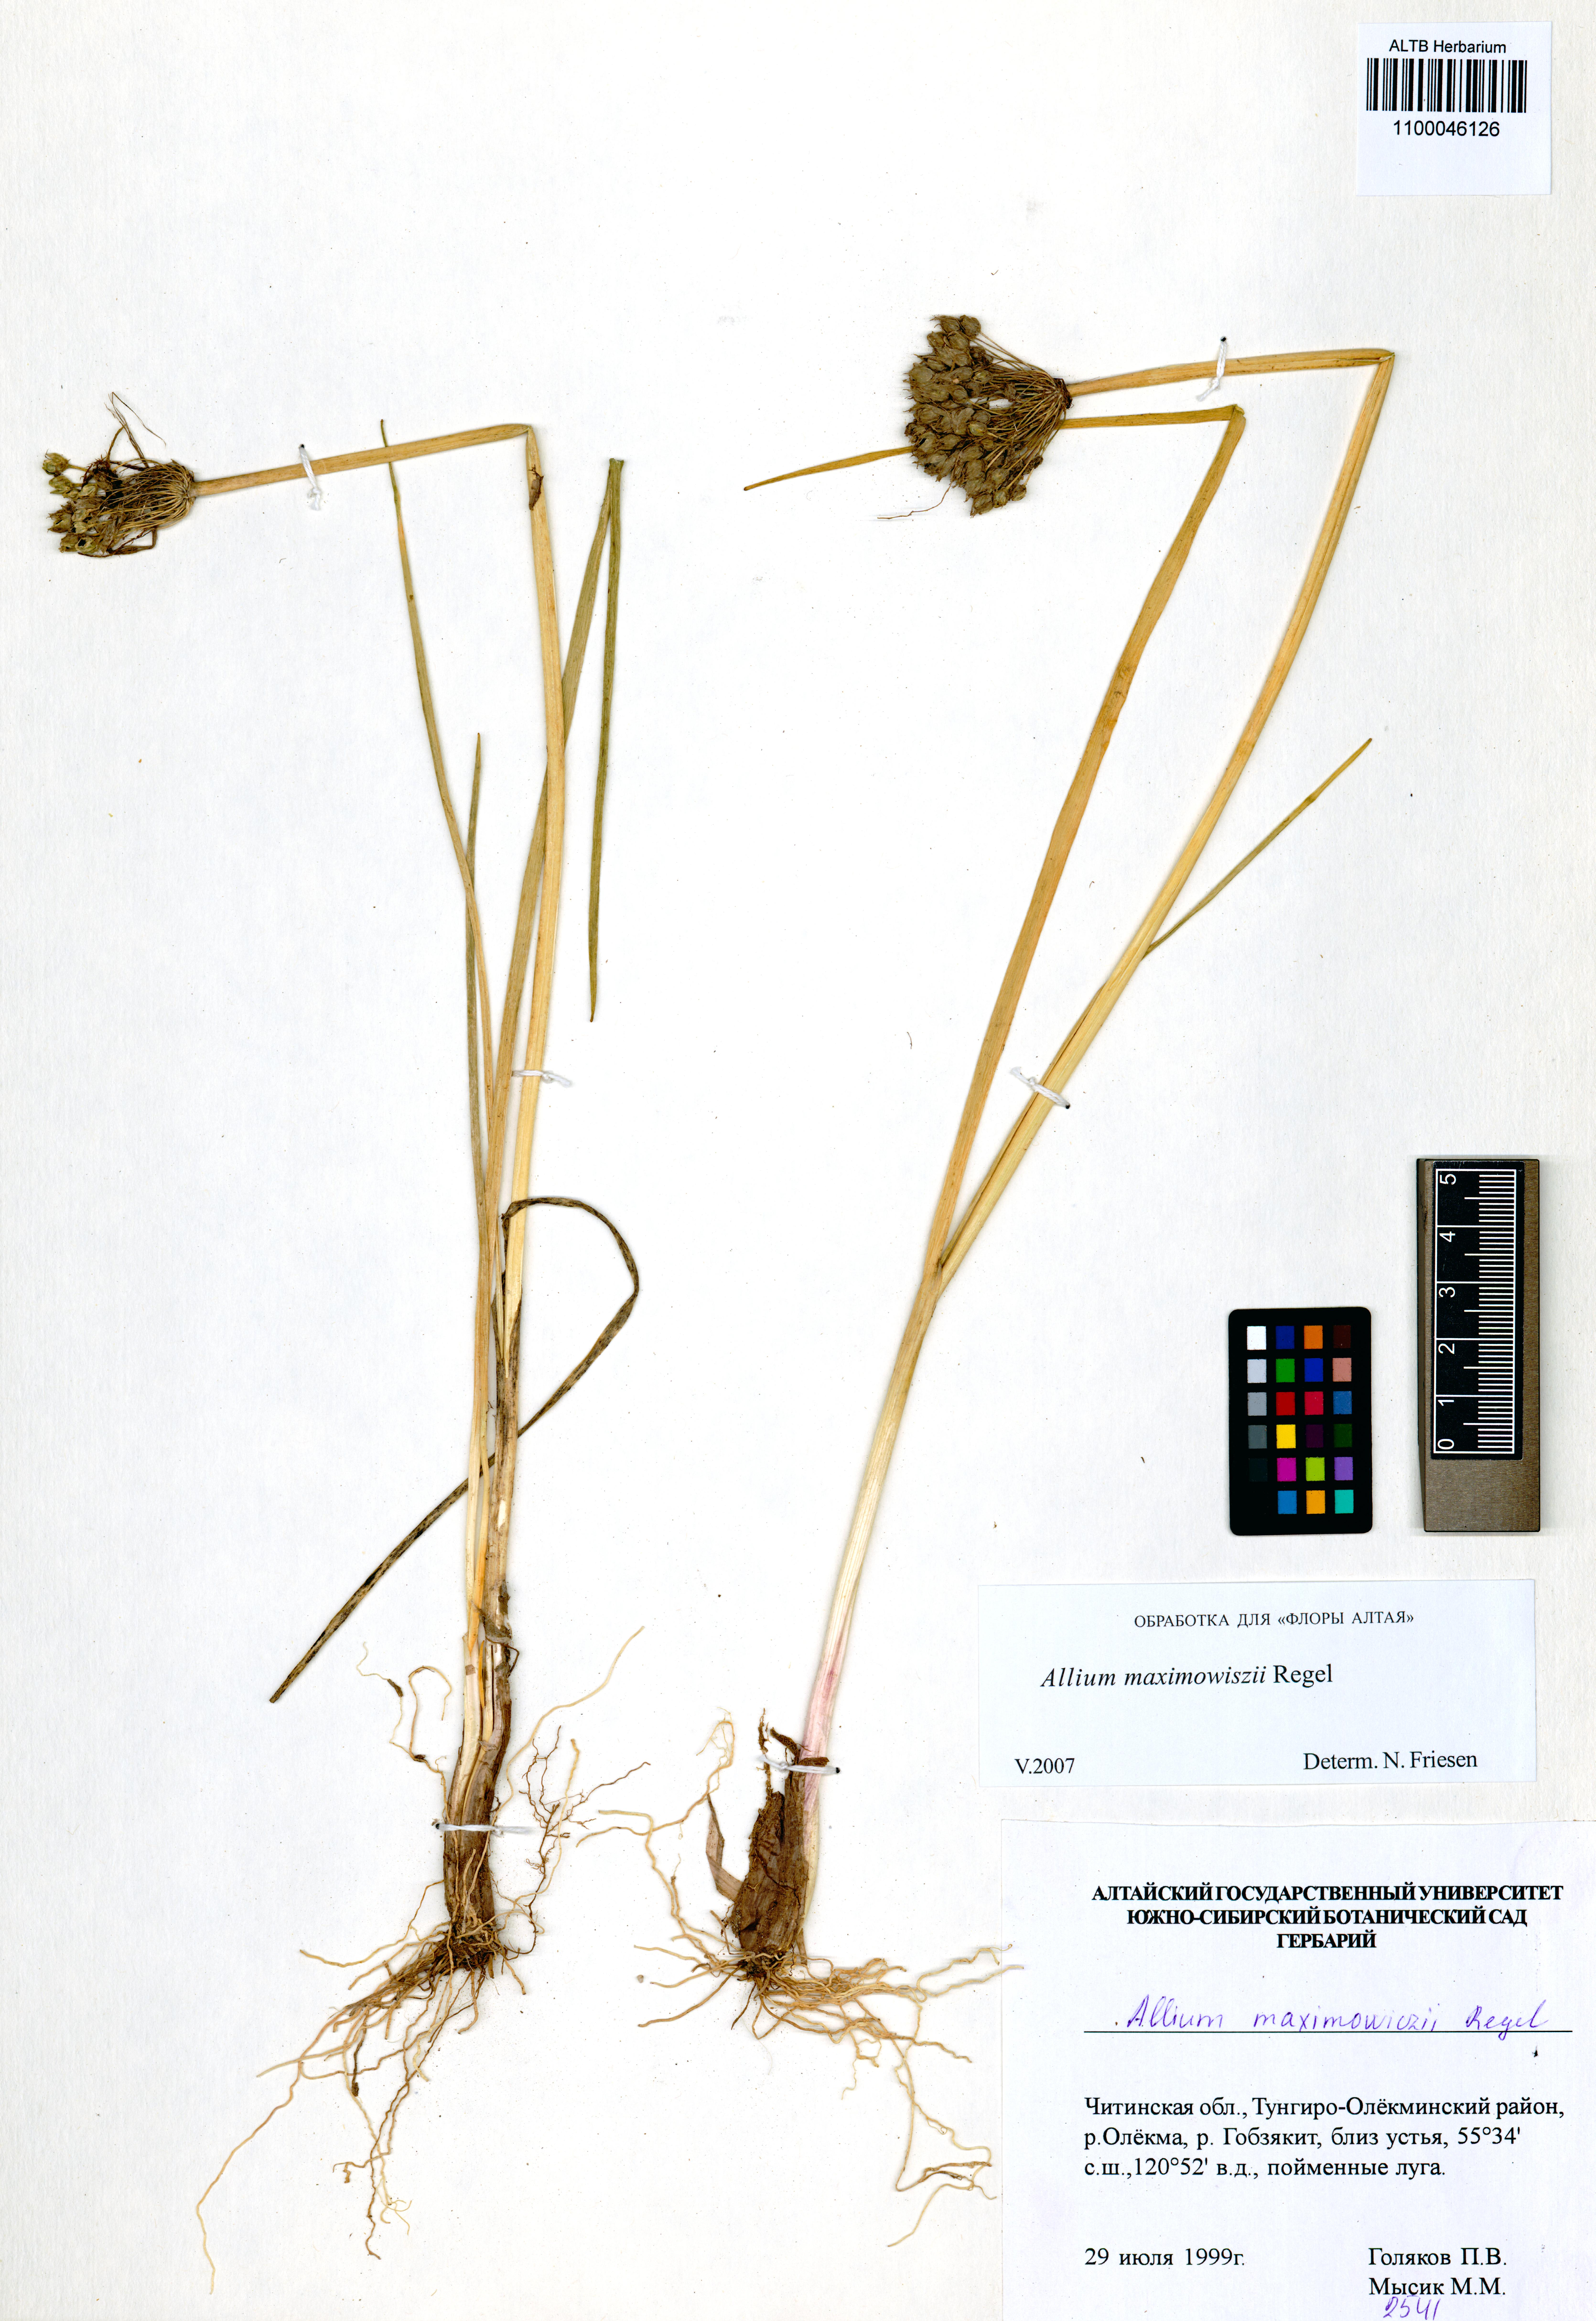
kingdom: Plantae
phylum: Tracheophyta
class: Liliopsida
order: Asparagales
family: Amaryllidaceae
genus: Allium
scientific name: Allium maximowiczii
